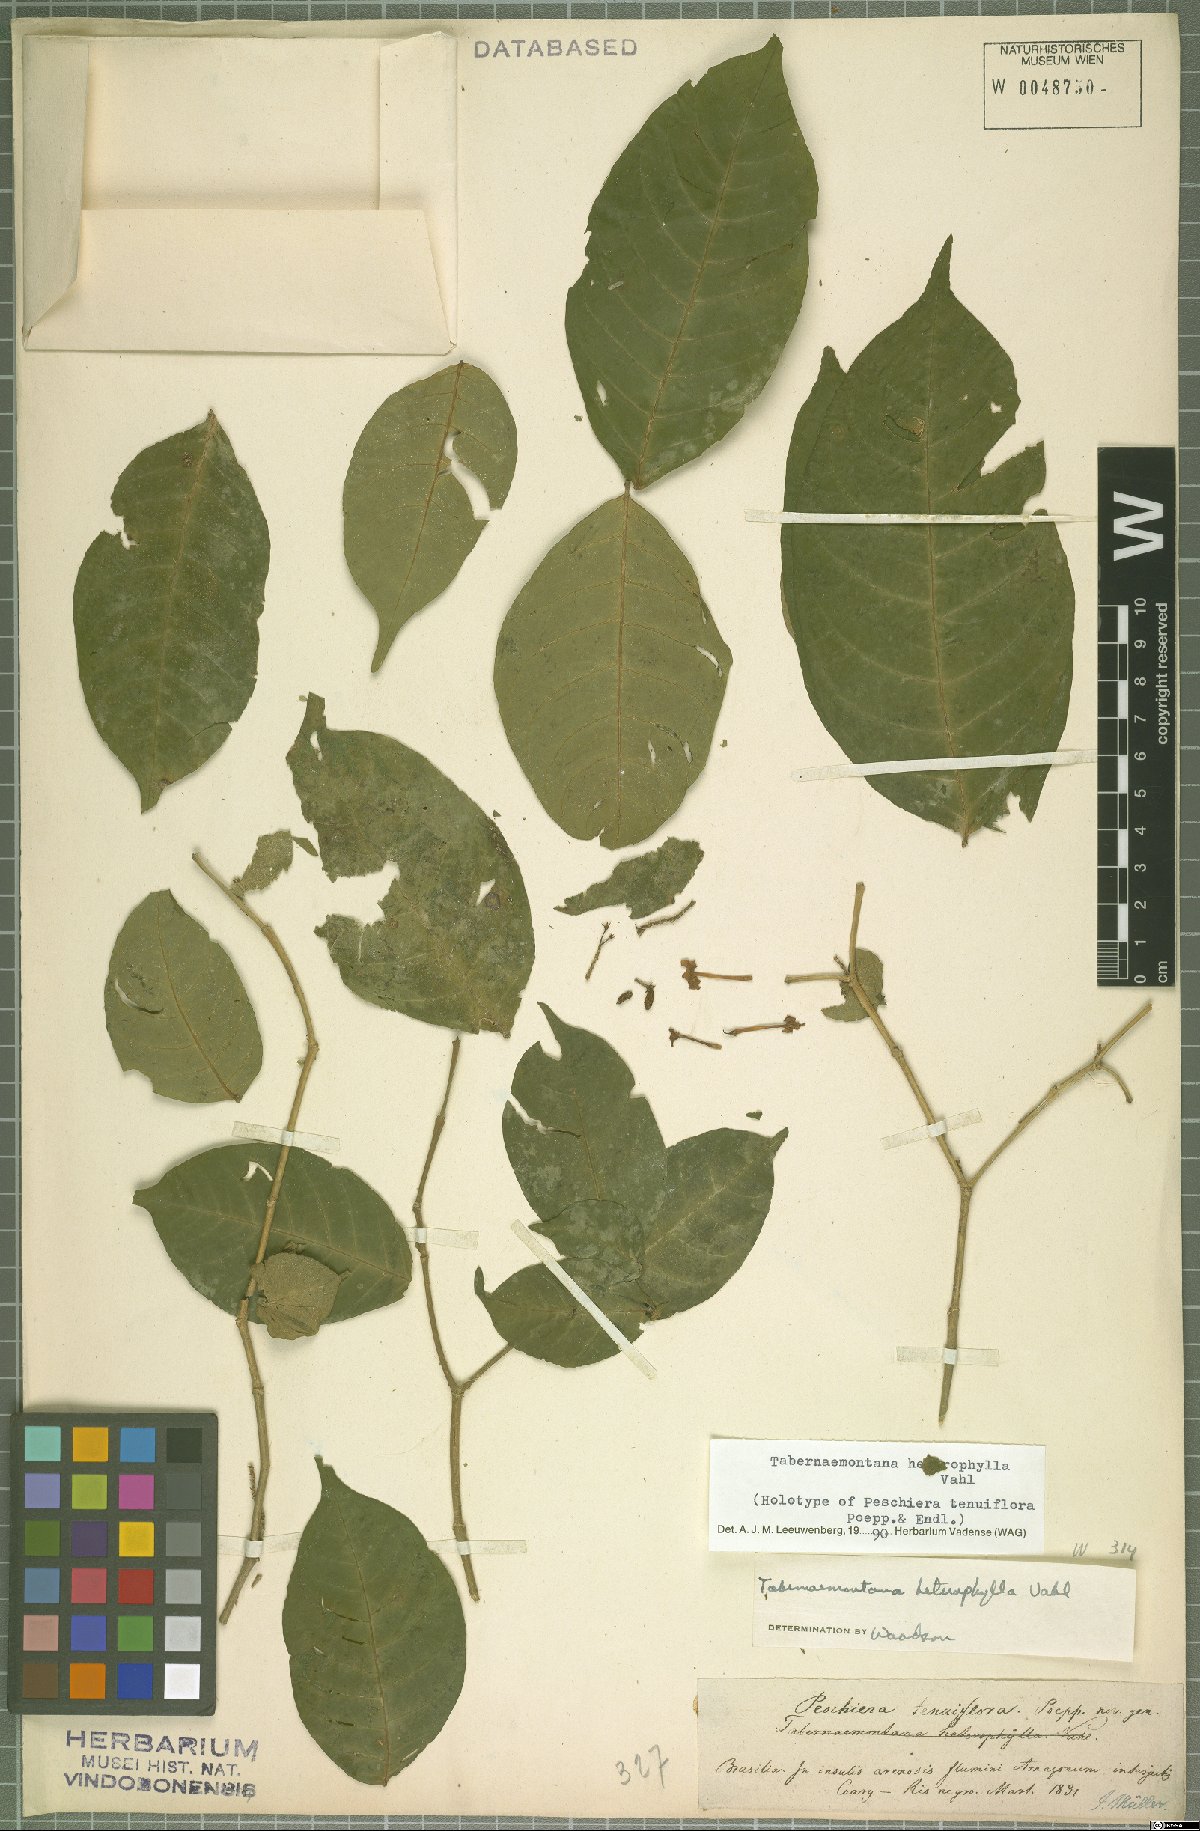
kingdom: Plantae
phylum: Tracheophyta
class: Magnoliopsida
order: Gentianales
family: Apocynaceae
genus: Tabernaemontana
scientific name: Tabernaemontana heterophylla
